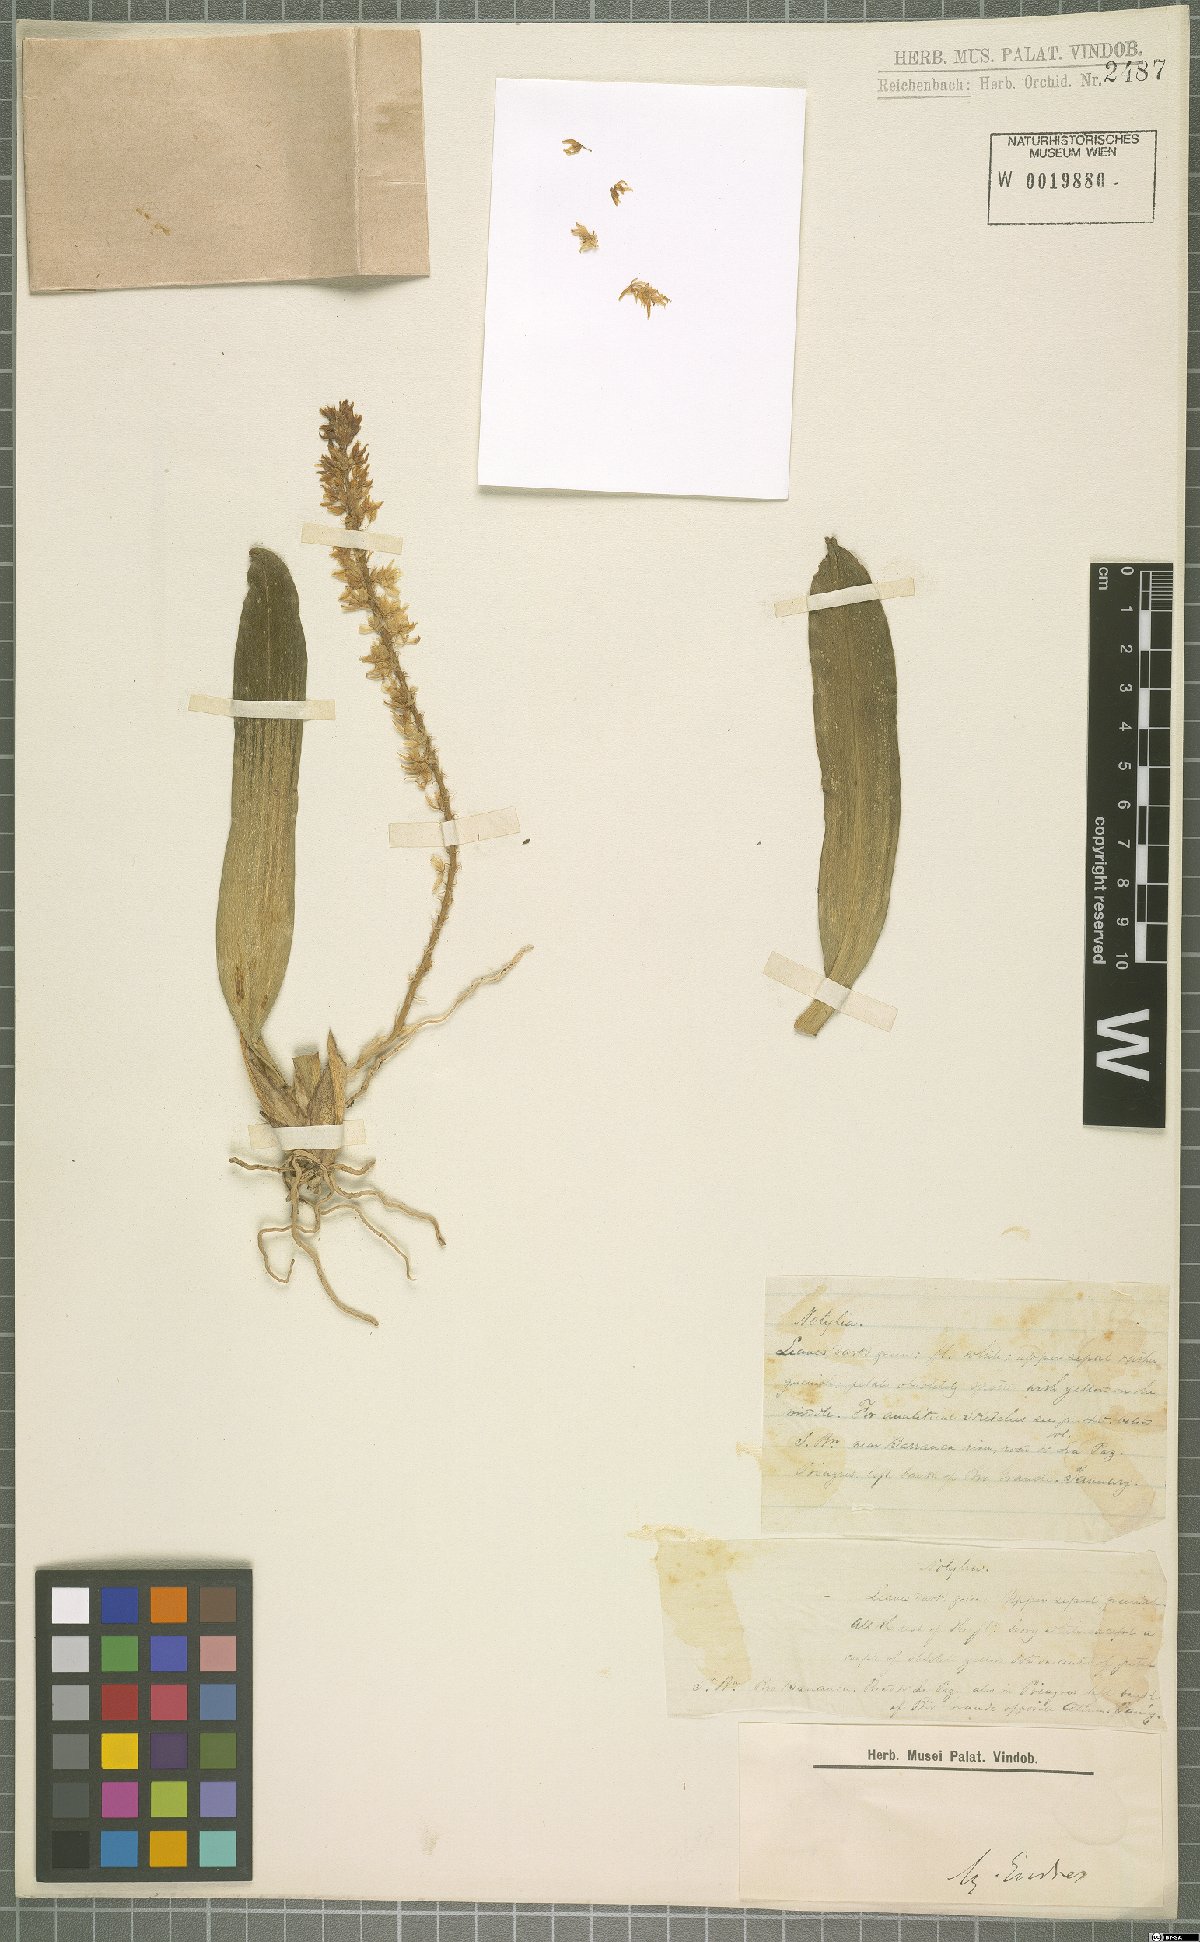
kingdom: Plantae
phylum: Tracheophyta
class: Liliopsida
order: Asparagales
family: Orchidaceae
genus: Notylia
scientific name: Notylia
